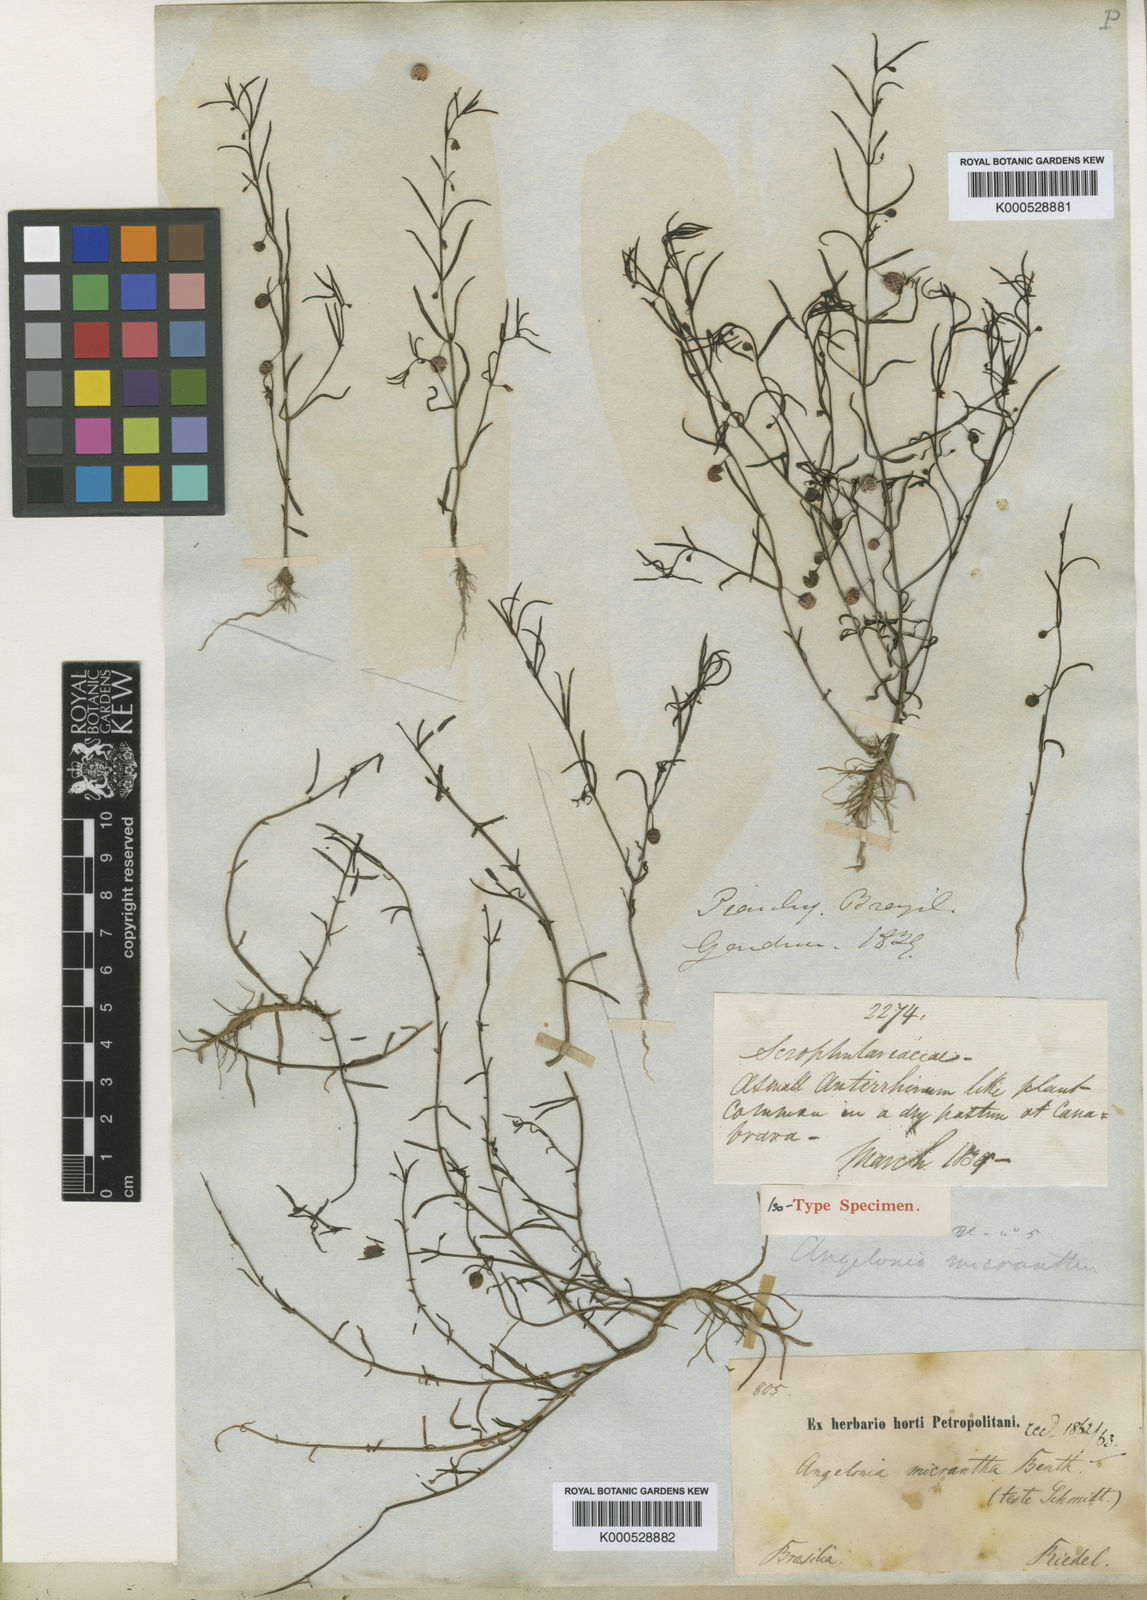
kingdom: Plantae
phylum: Tracheophyta
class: Magnoliopsida
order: Lamiales
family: Plantaginaceae
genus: Angelonia
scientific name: Angelonia micrantha
